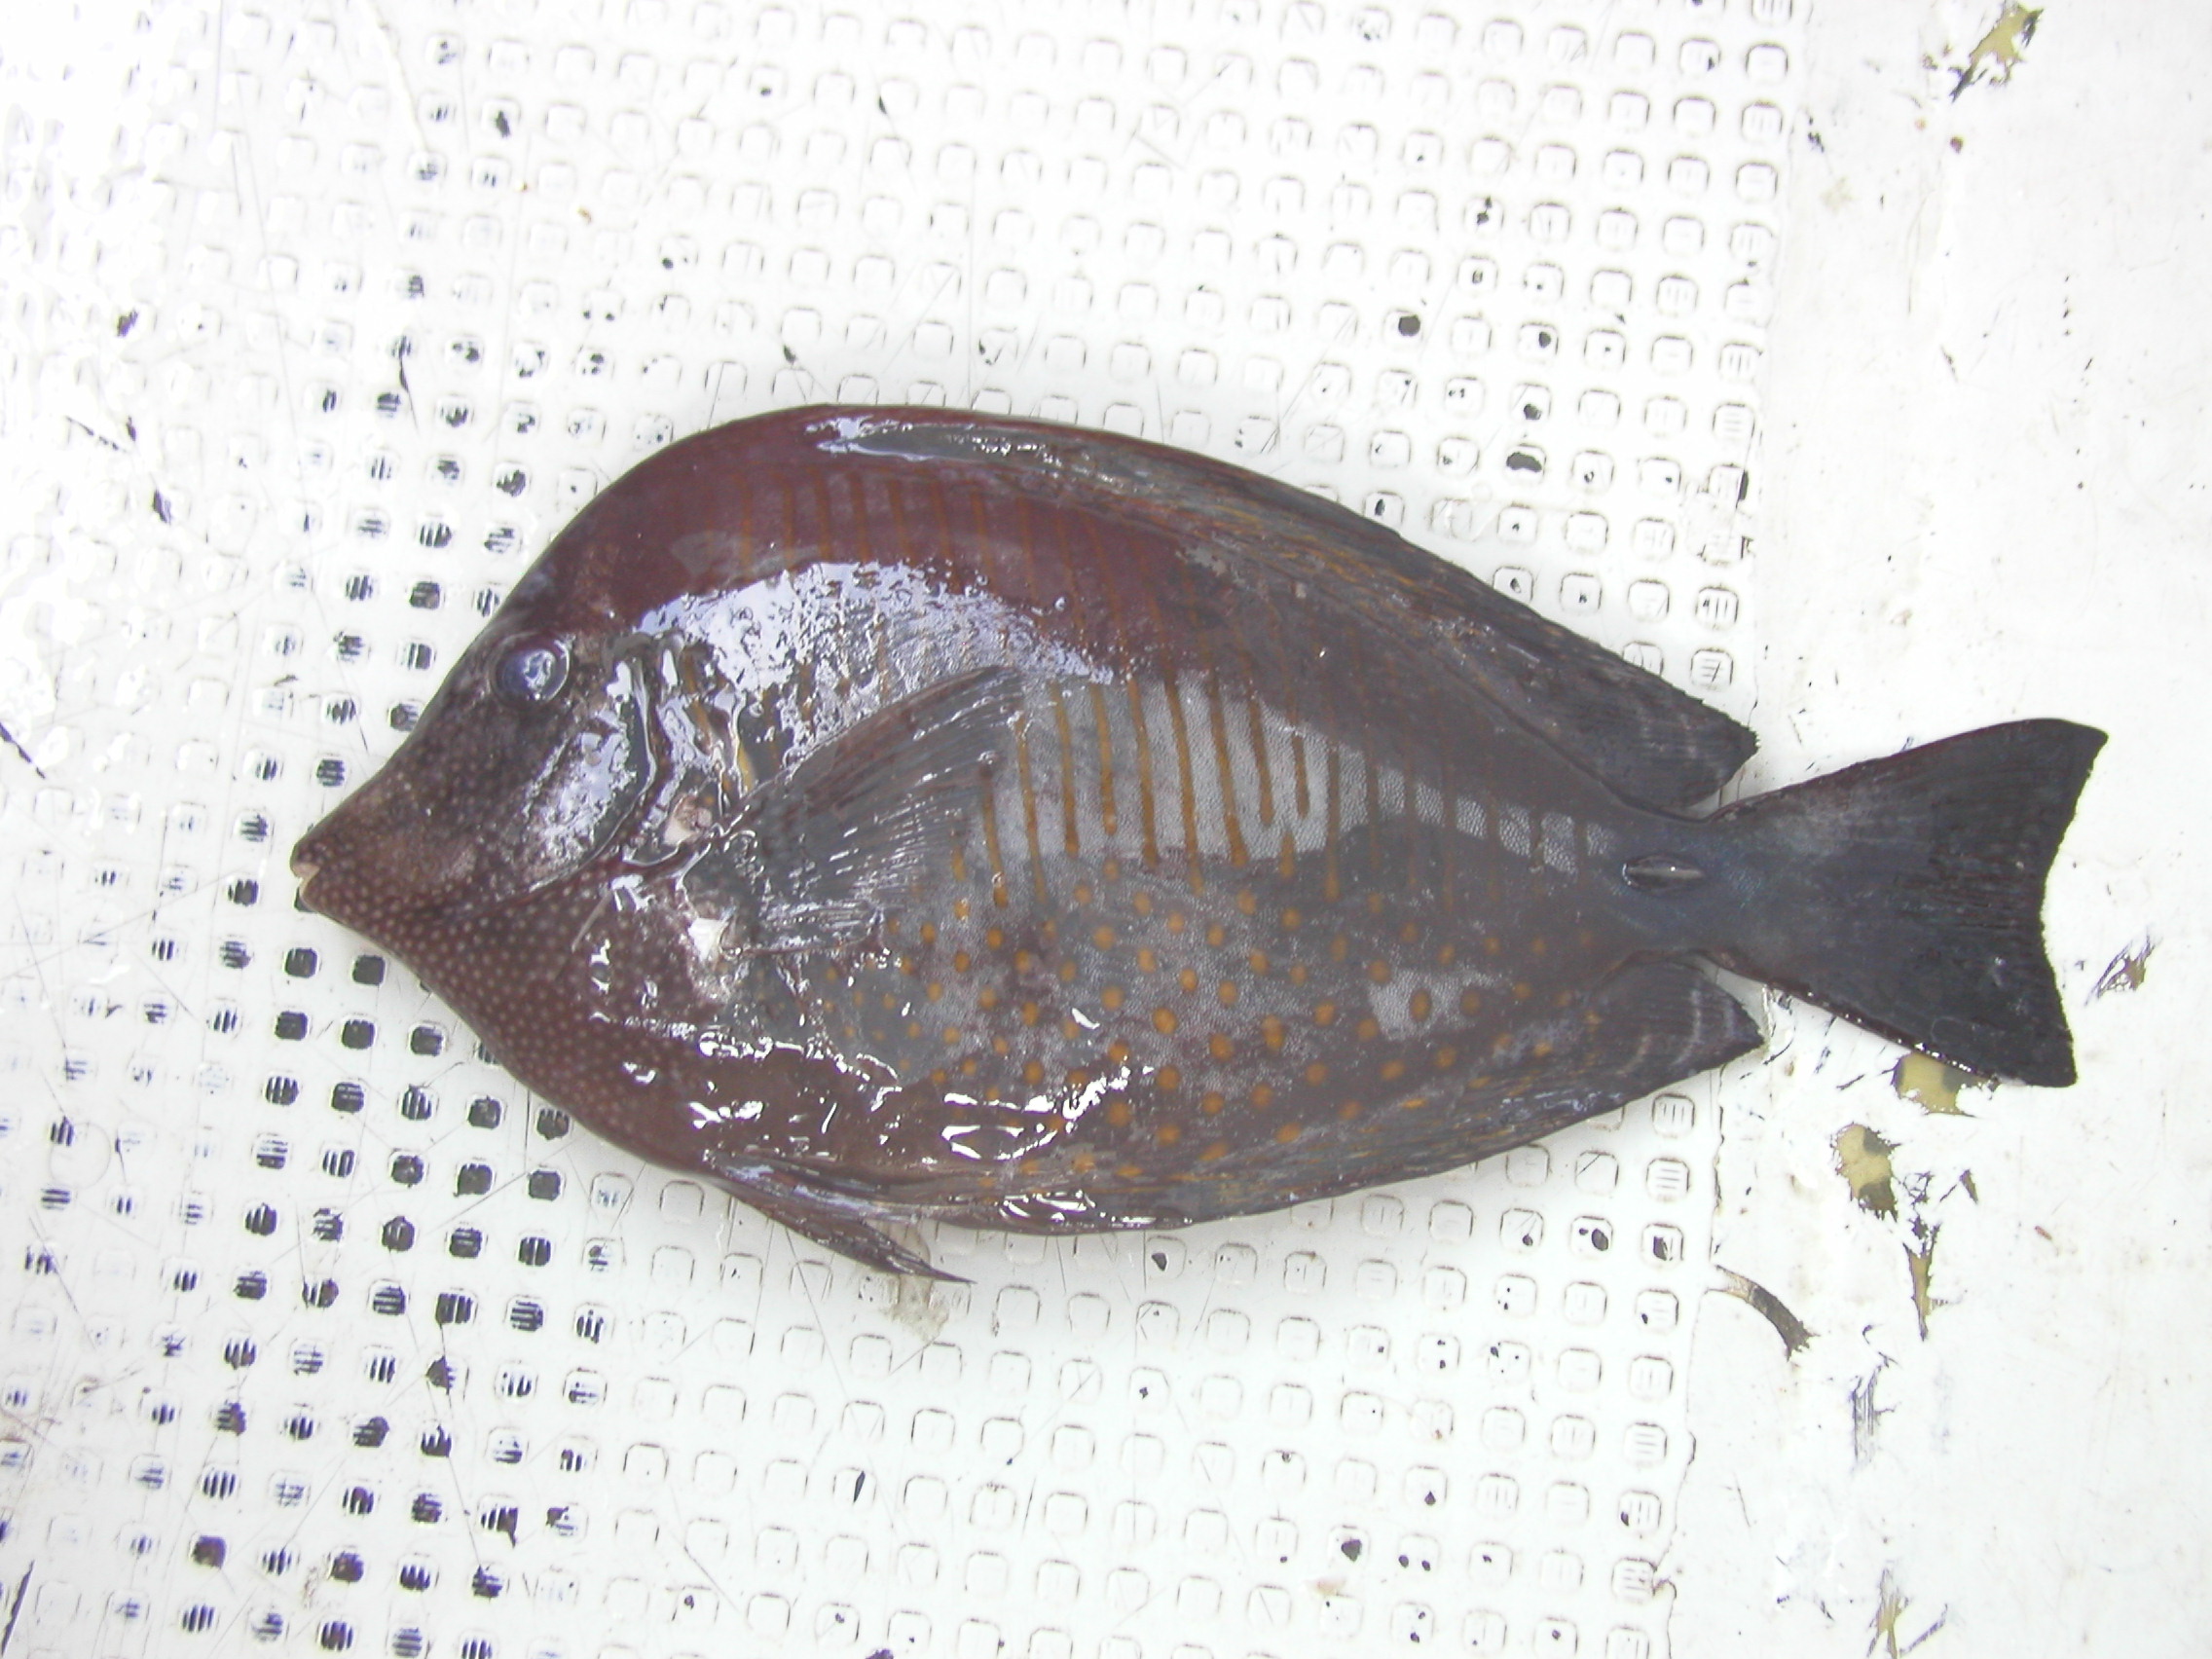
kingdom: Animalia
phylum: Chordata
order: Perciformes
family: Acanthuridae
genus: Zebrasoma
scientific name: Zebrasoma desjardinii
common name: Desjardin's sailfin tang
